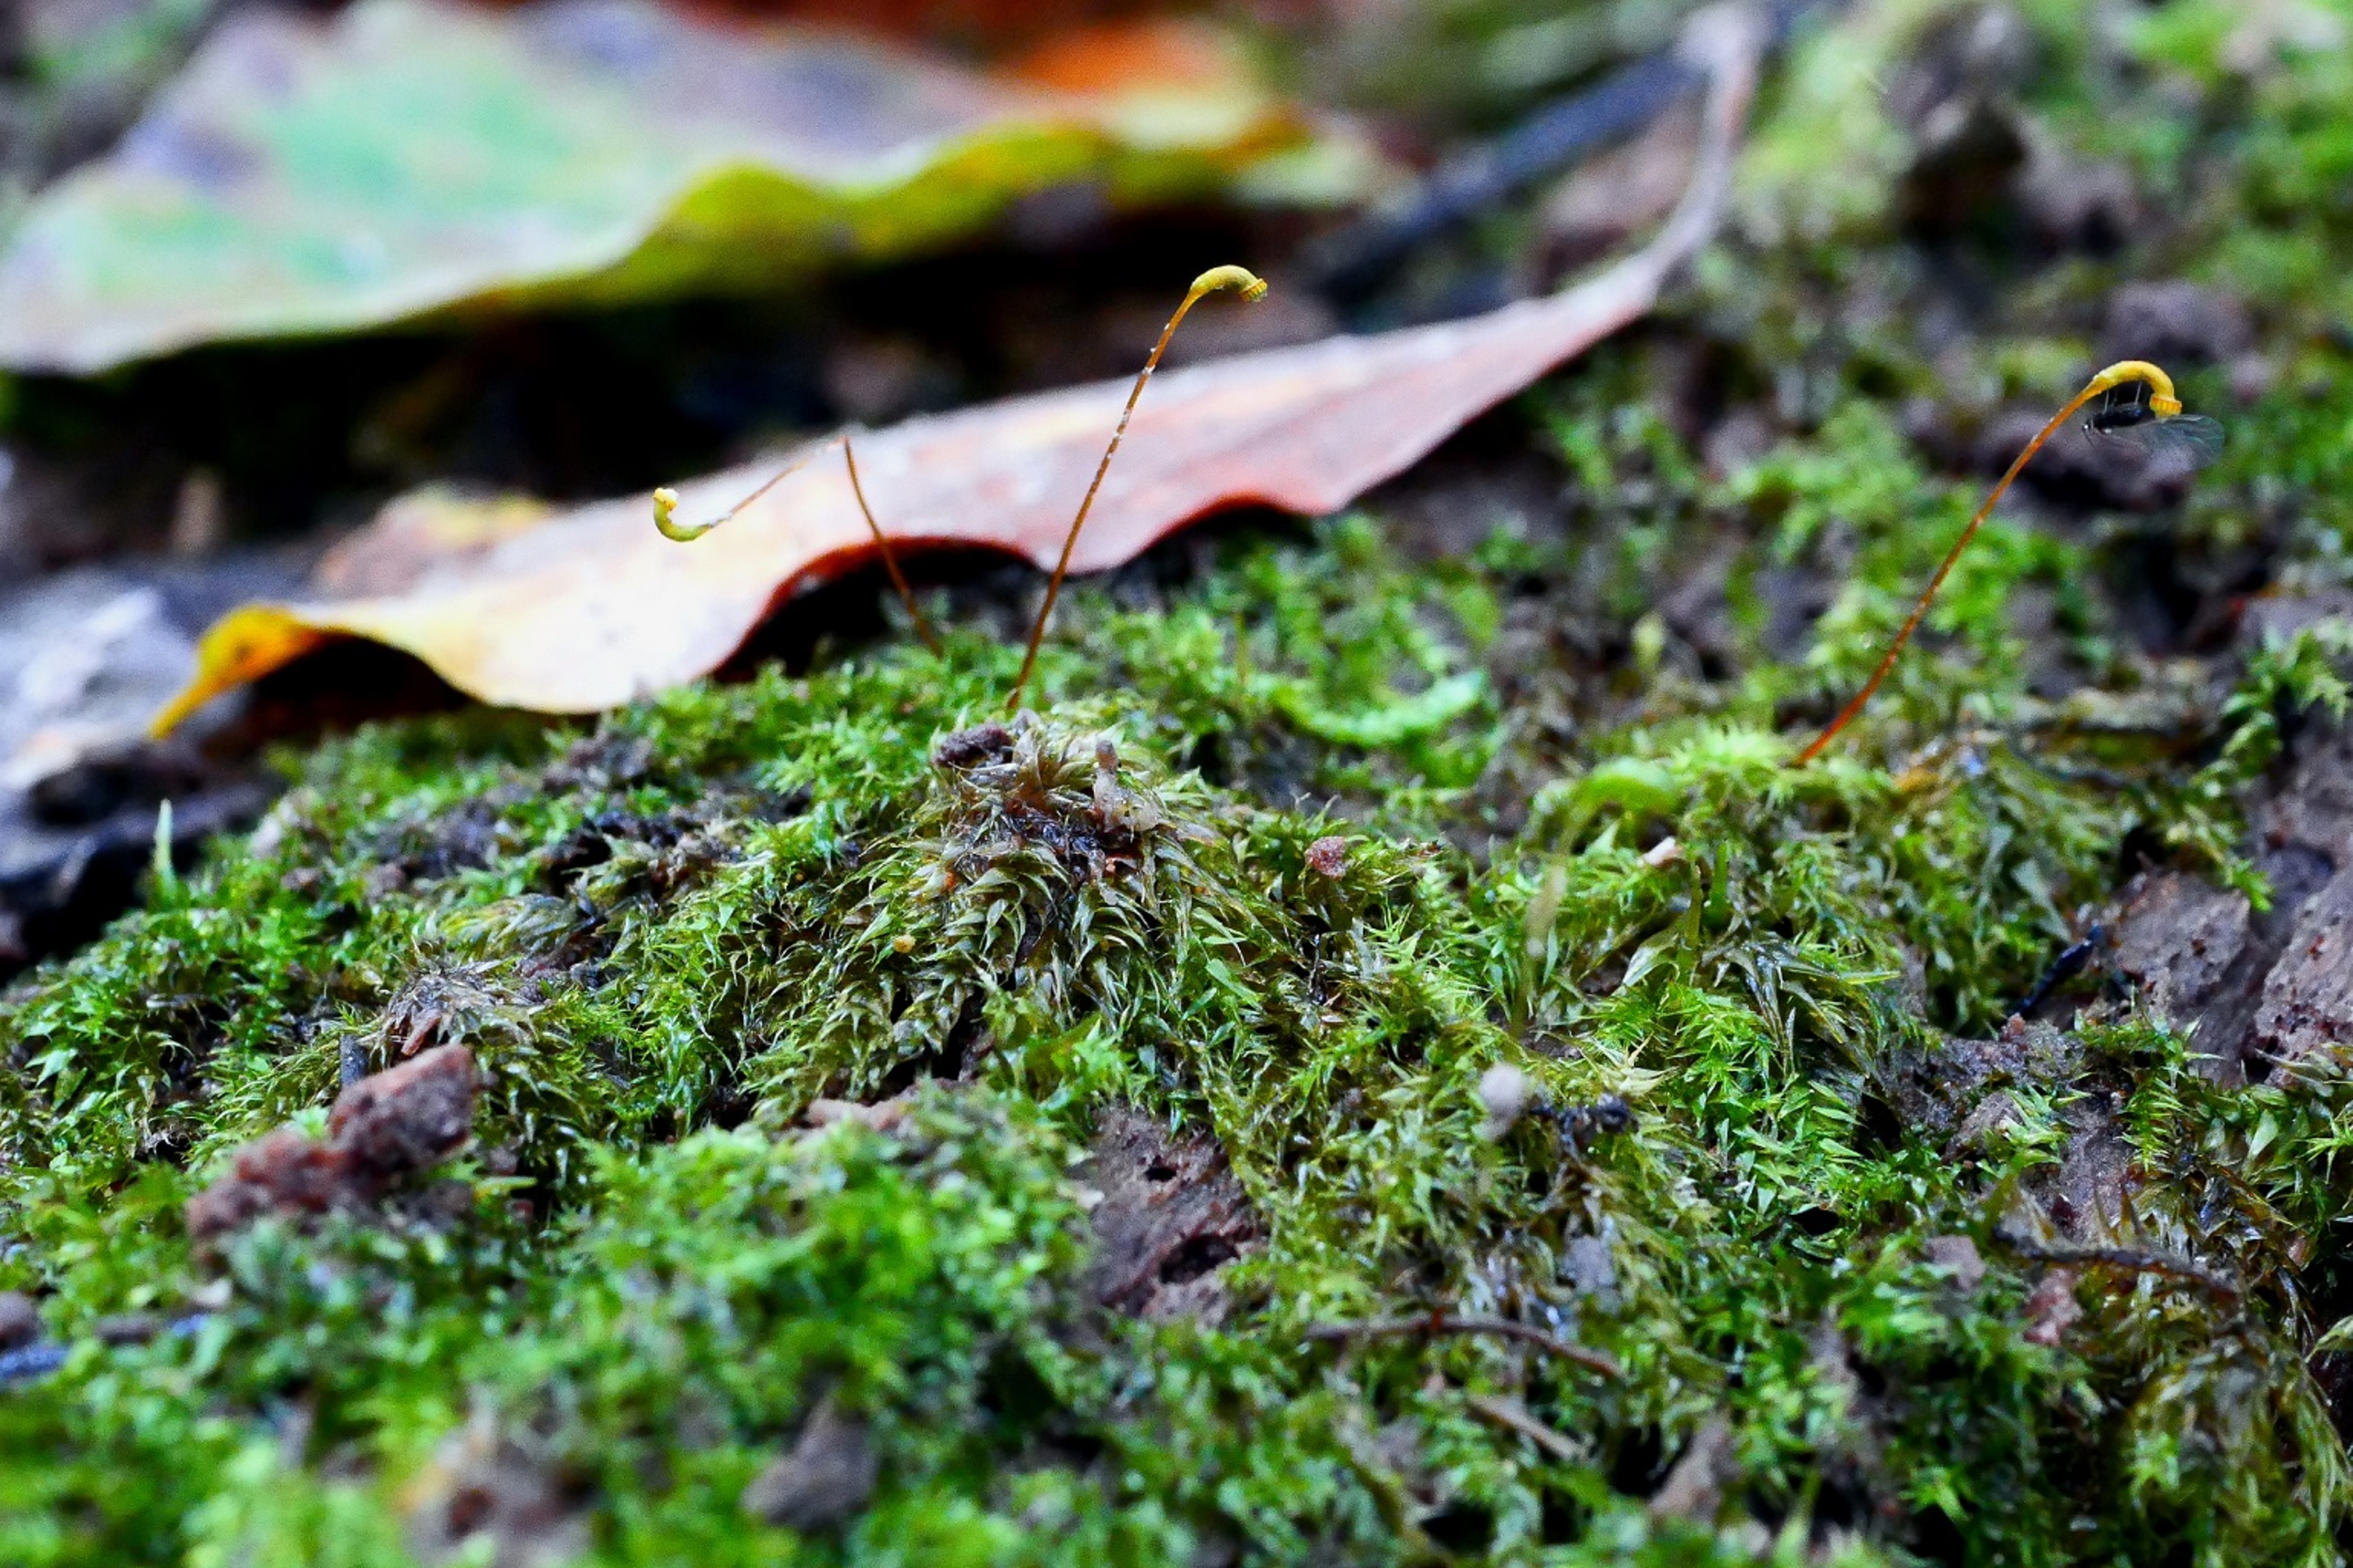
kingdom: Plantae
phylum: Bryophyta
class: Bryopsida
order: Hypnales
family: Amblystegiaceae
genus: Leptodictyum
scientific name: Leptodictyum riparium
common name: Stor pytmos
